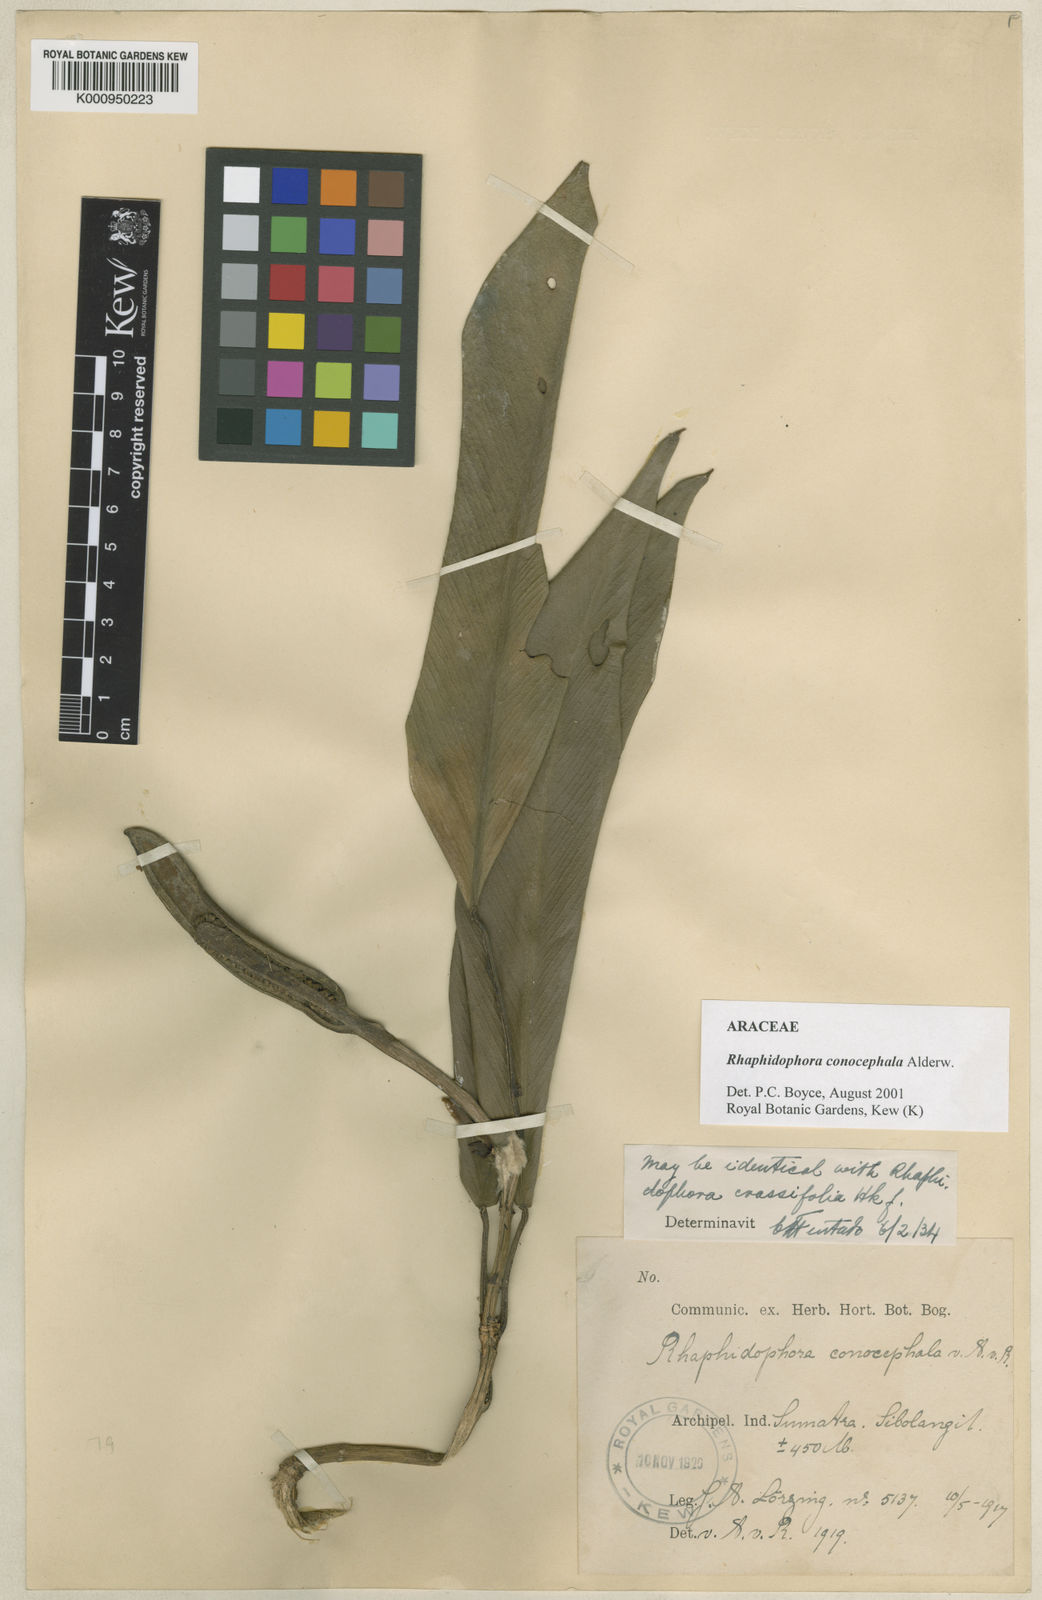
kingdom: Plantae
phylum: Tracheophyta
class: Liliopsida
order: Alismatales
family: Araceae
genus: Rhaphidophora
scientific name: Rhaphidophora conocephala
